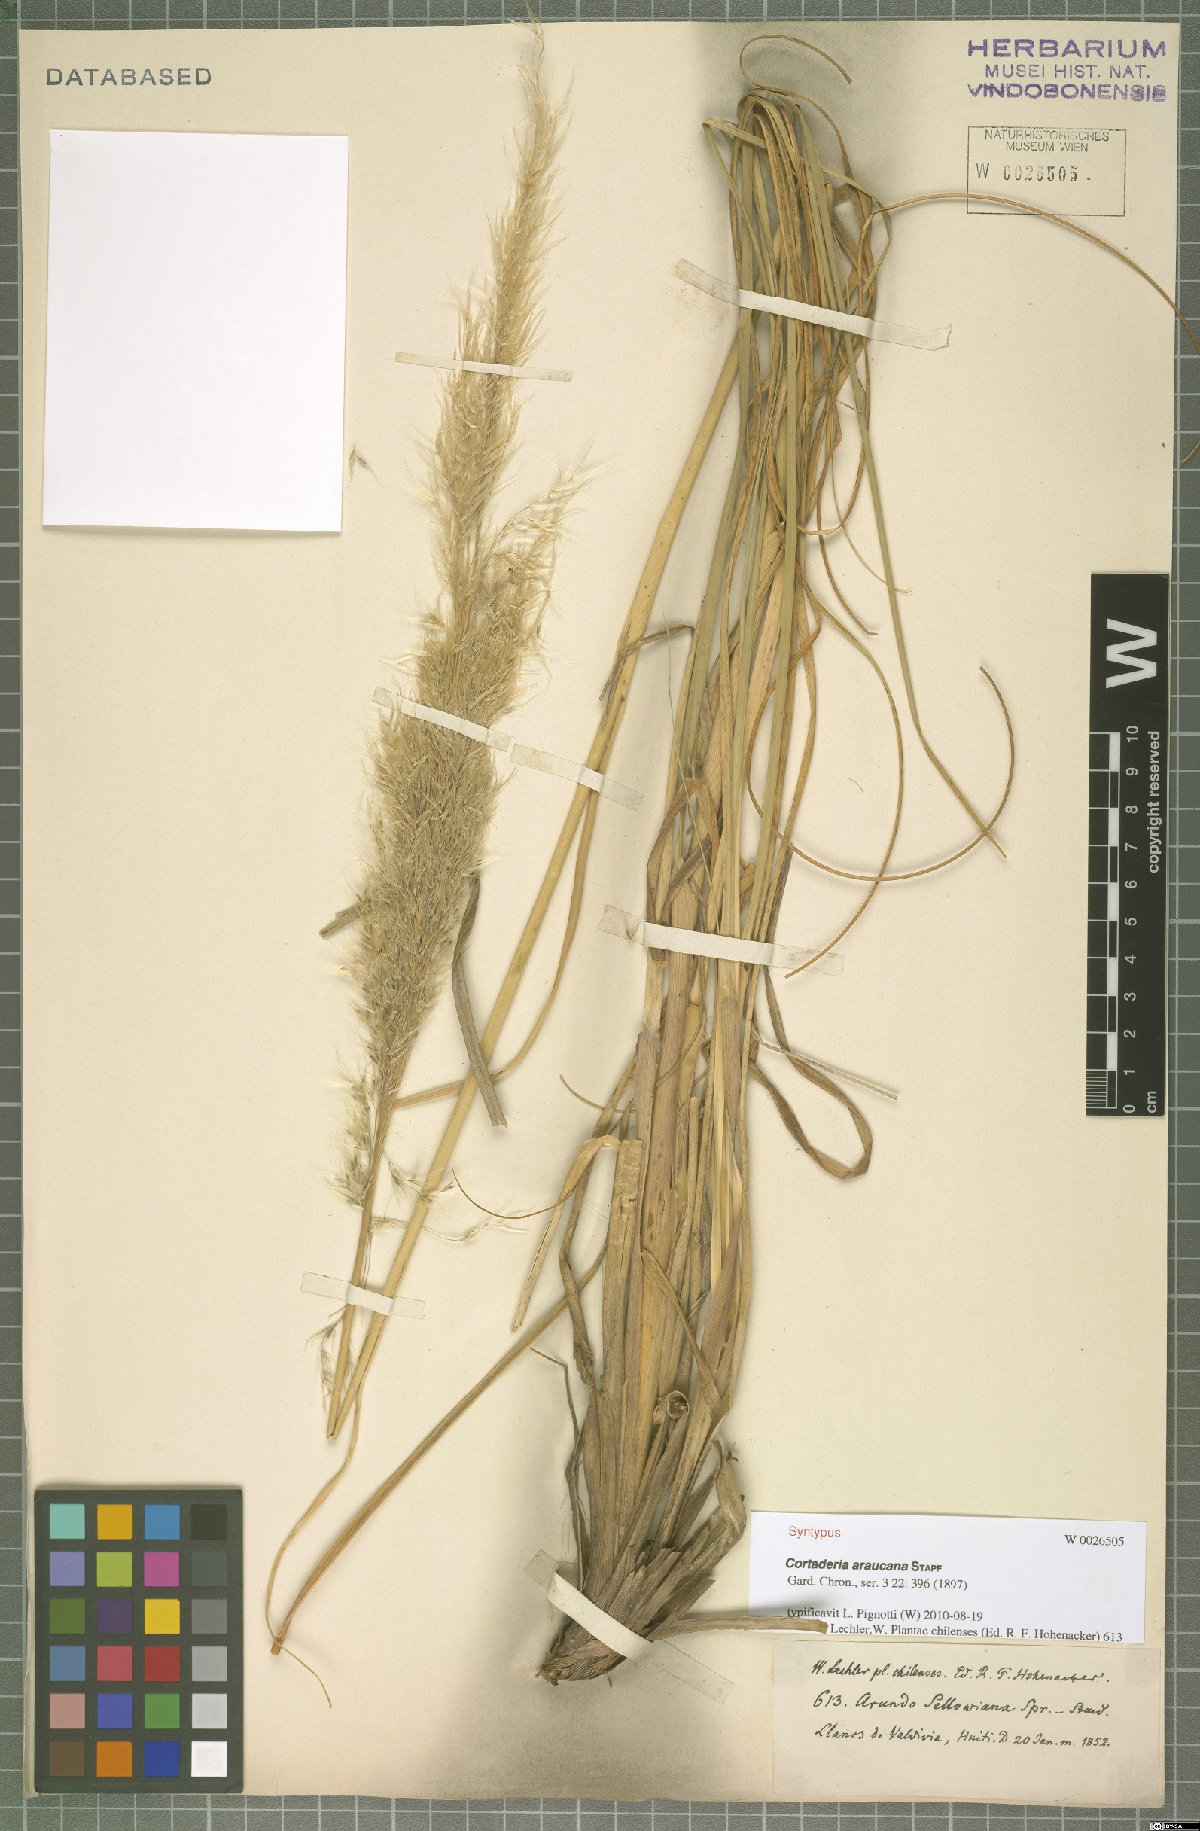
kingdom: Plantae
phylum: Tracheophyta
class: Liliopsida
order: Poales
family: Poaceae
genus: Cortaderia
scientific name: Cortaderia araucana
